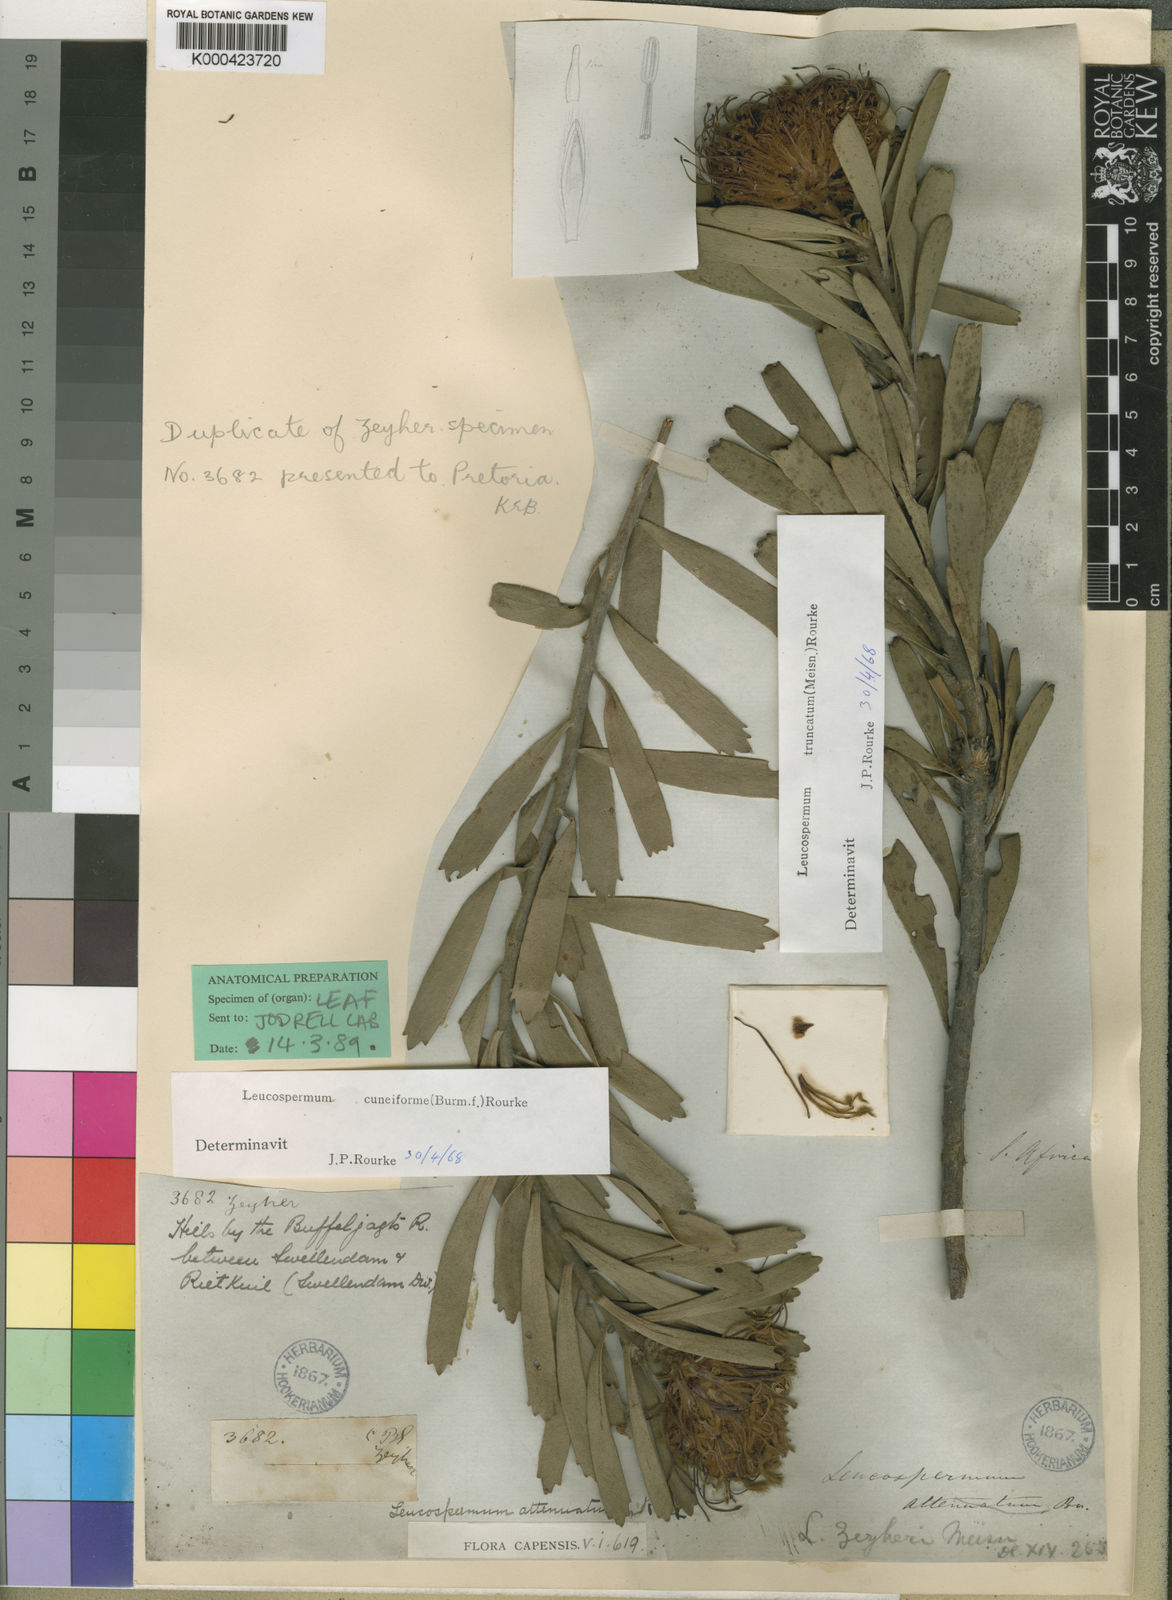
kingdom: Plantae
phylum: Tracheophyta
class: Magnoliopsida
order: Proteales
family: Proteaceae
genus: Leucospermum
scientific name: Leucospermum cuneiforme
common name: Common pincushion
